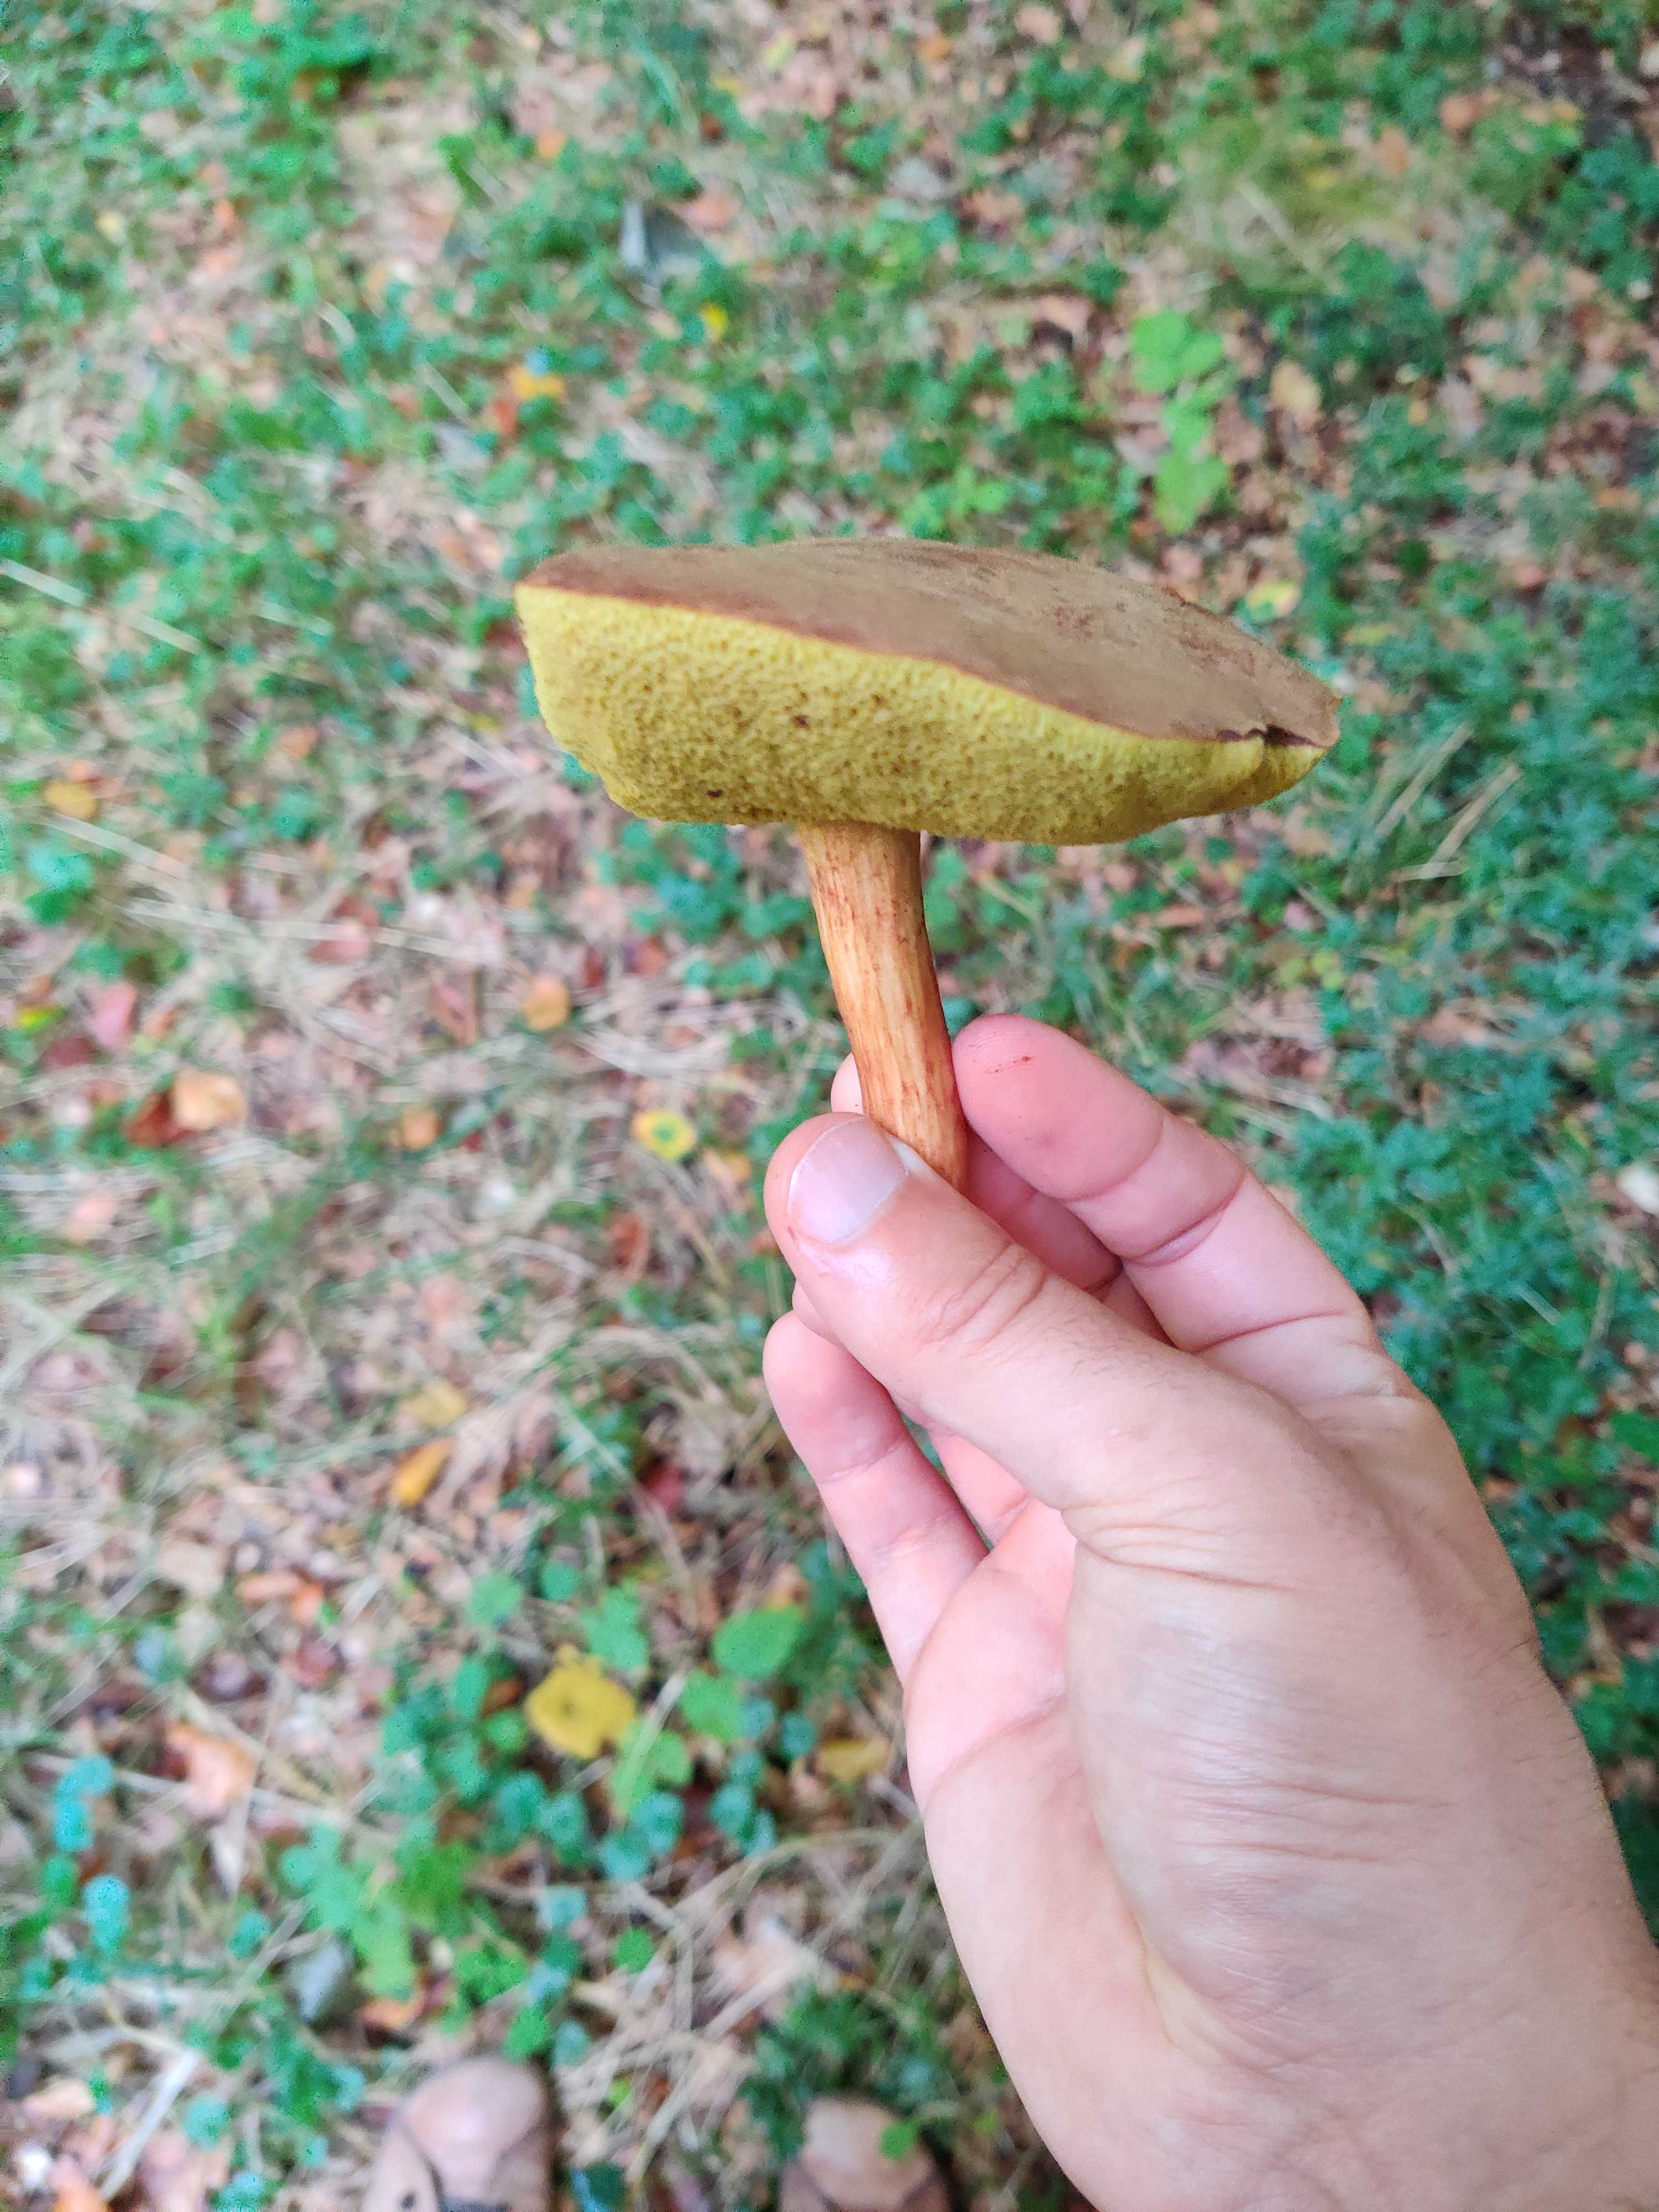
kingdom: Fungi
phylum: Basidiomycota
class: Agaricomycetes
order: Boletales
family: Boletaceae
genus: Xerocomus
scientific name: Xerocomus ferrugineus
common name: vaskeskinds-rørhat
